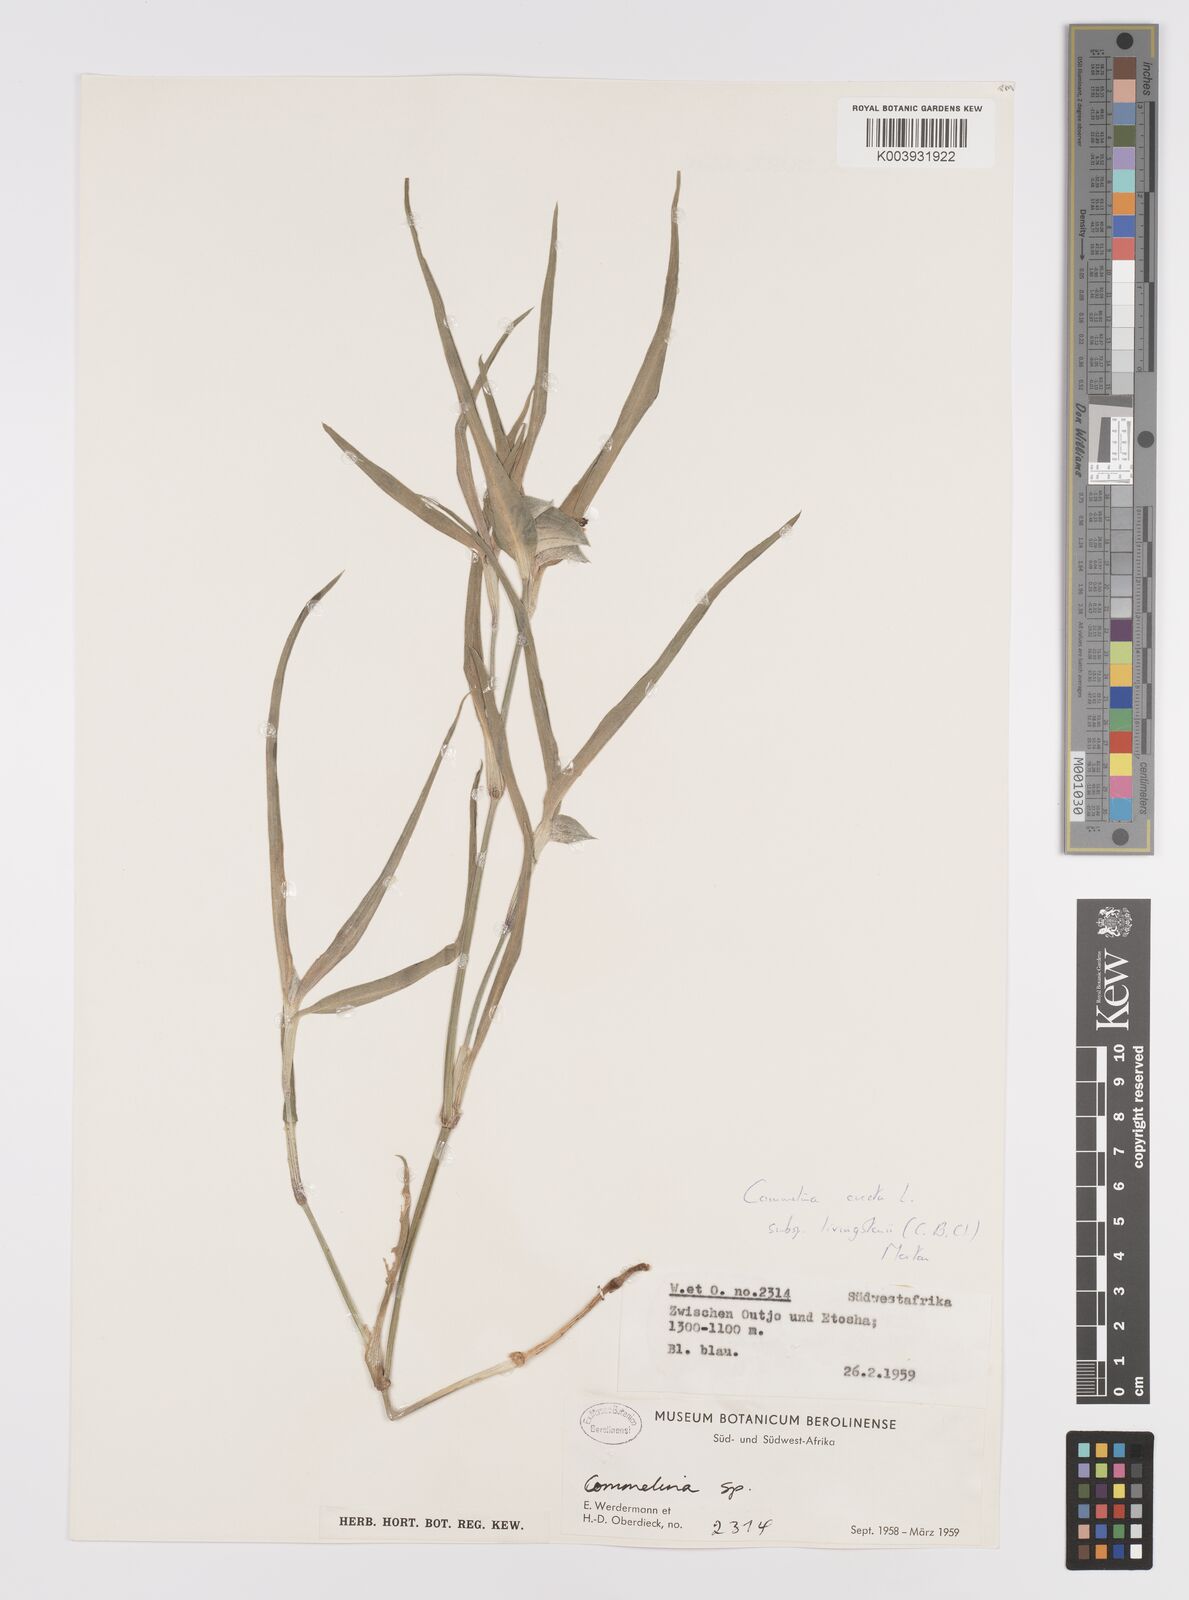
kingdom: Plantae
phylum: Tracheophyta
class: Liliopsida
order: Commelinales
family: Commelinaceae
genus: Commelina
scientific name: Commelina erecta
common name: Blousel blommetjie
